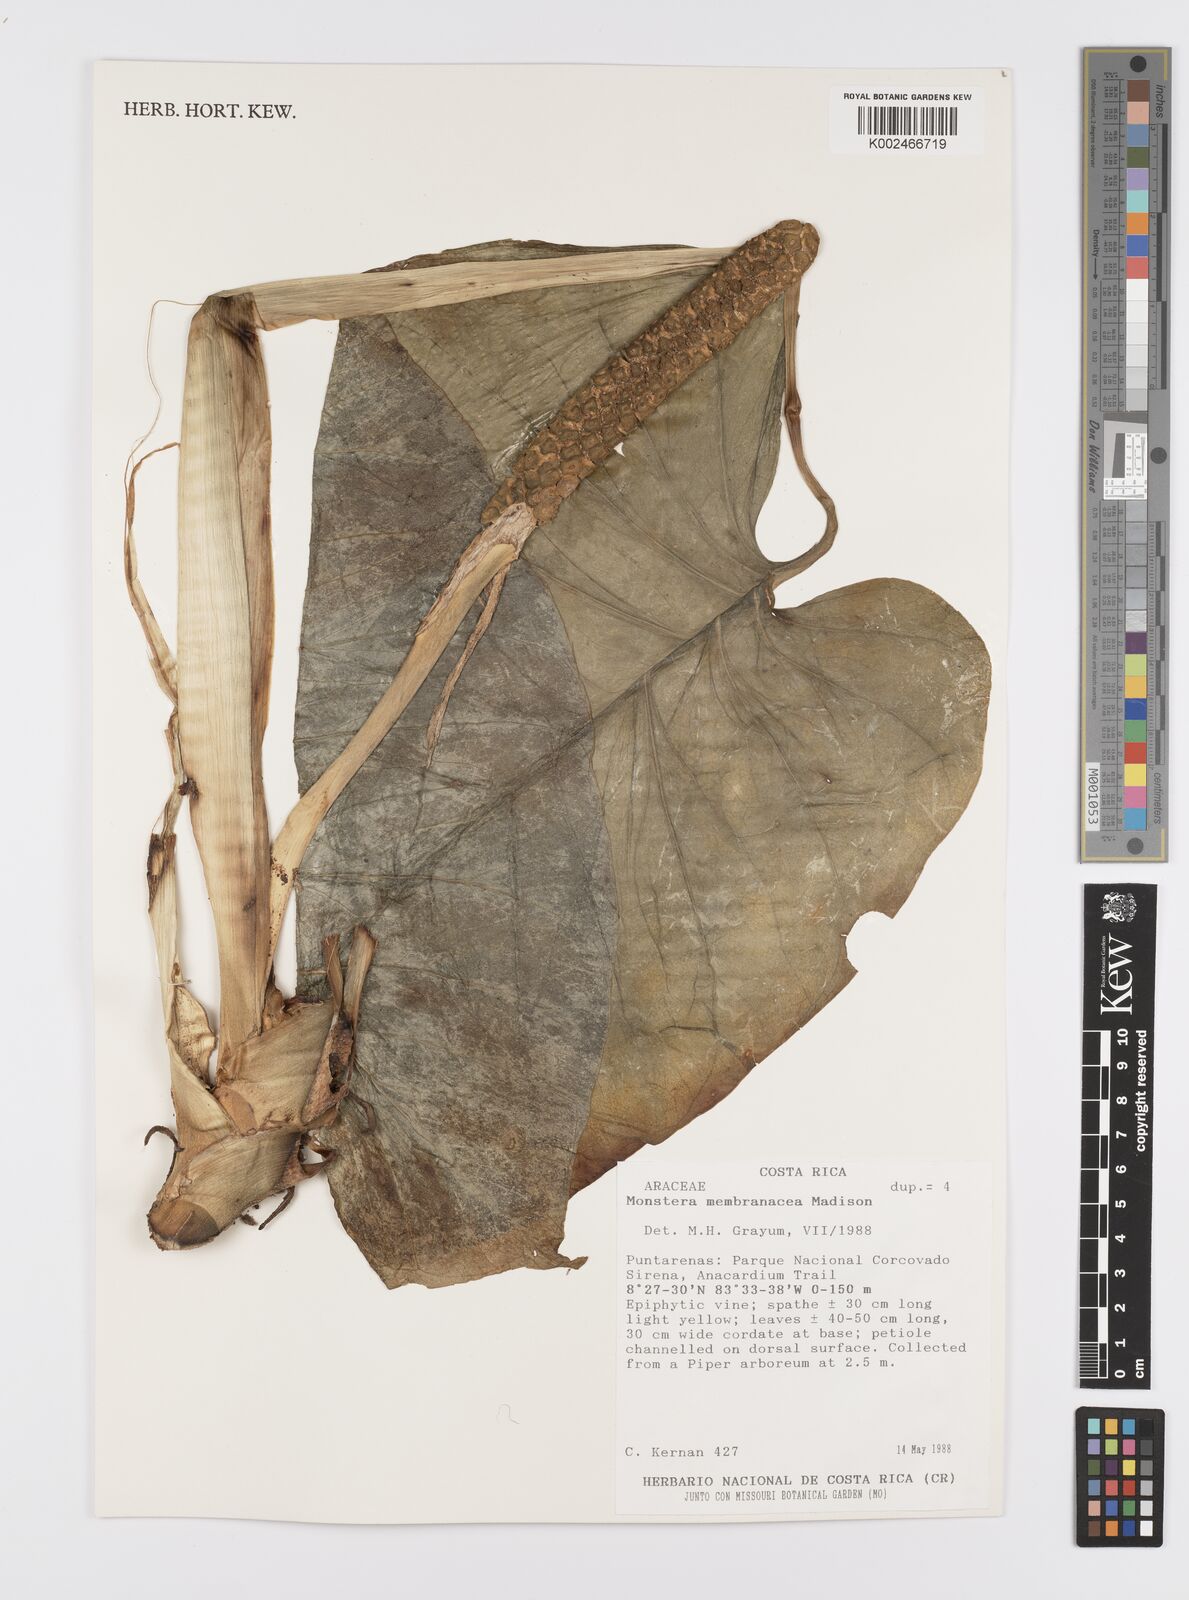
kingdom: Plantae
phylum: Tracheophyta
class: Liliopsida
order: Alismatales
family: Araceae
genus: Monstera
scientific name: Monstera membranacea
